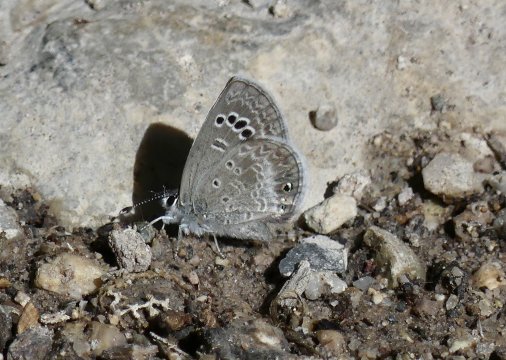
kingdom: Animalia
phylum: Arthropoda
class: Insecta
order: Lepidoptera
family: Lycaenidae
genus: Echinargus
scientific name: Echinargus isola
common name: Reakirt's Blue
